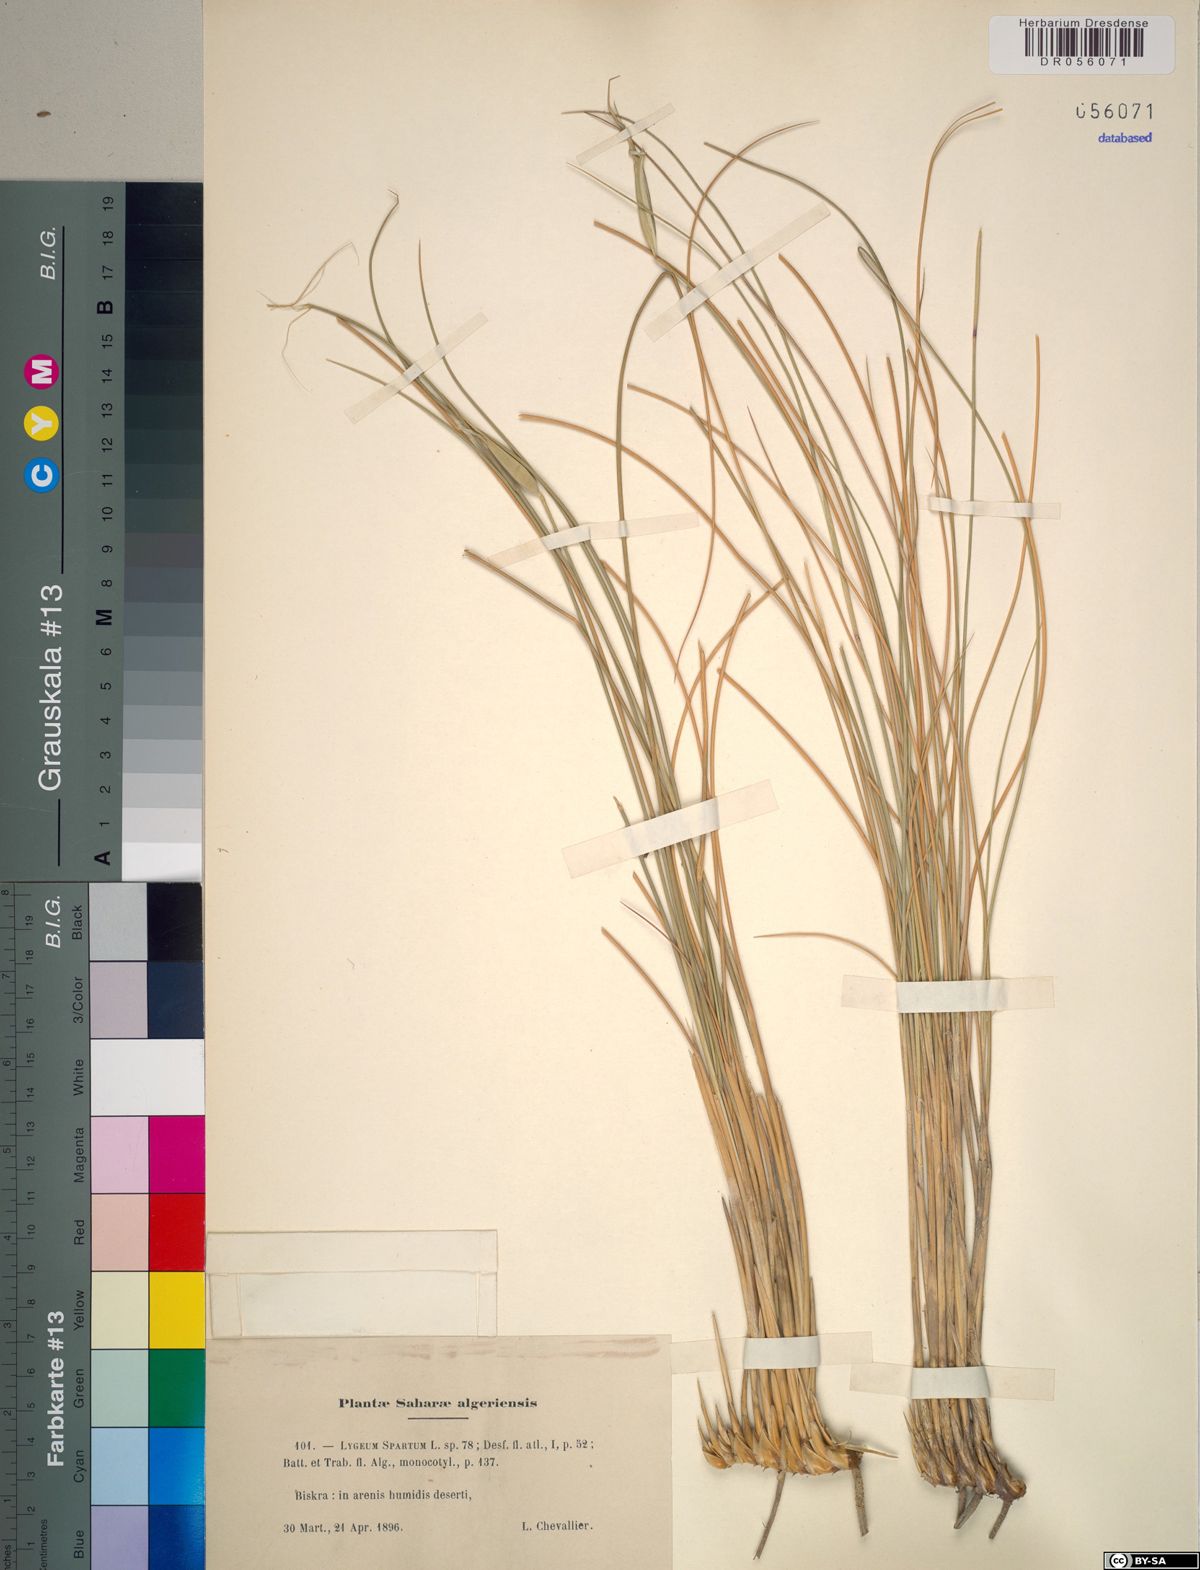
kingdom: Plantae
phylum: Tracheophyta
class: Liliopsida
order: Poales
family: Poaceae
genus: Lygeum
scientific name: Lygeum spartum
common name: Albardine
